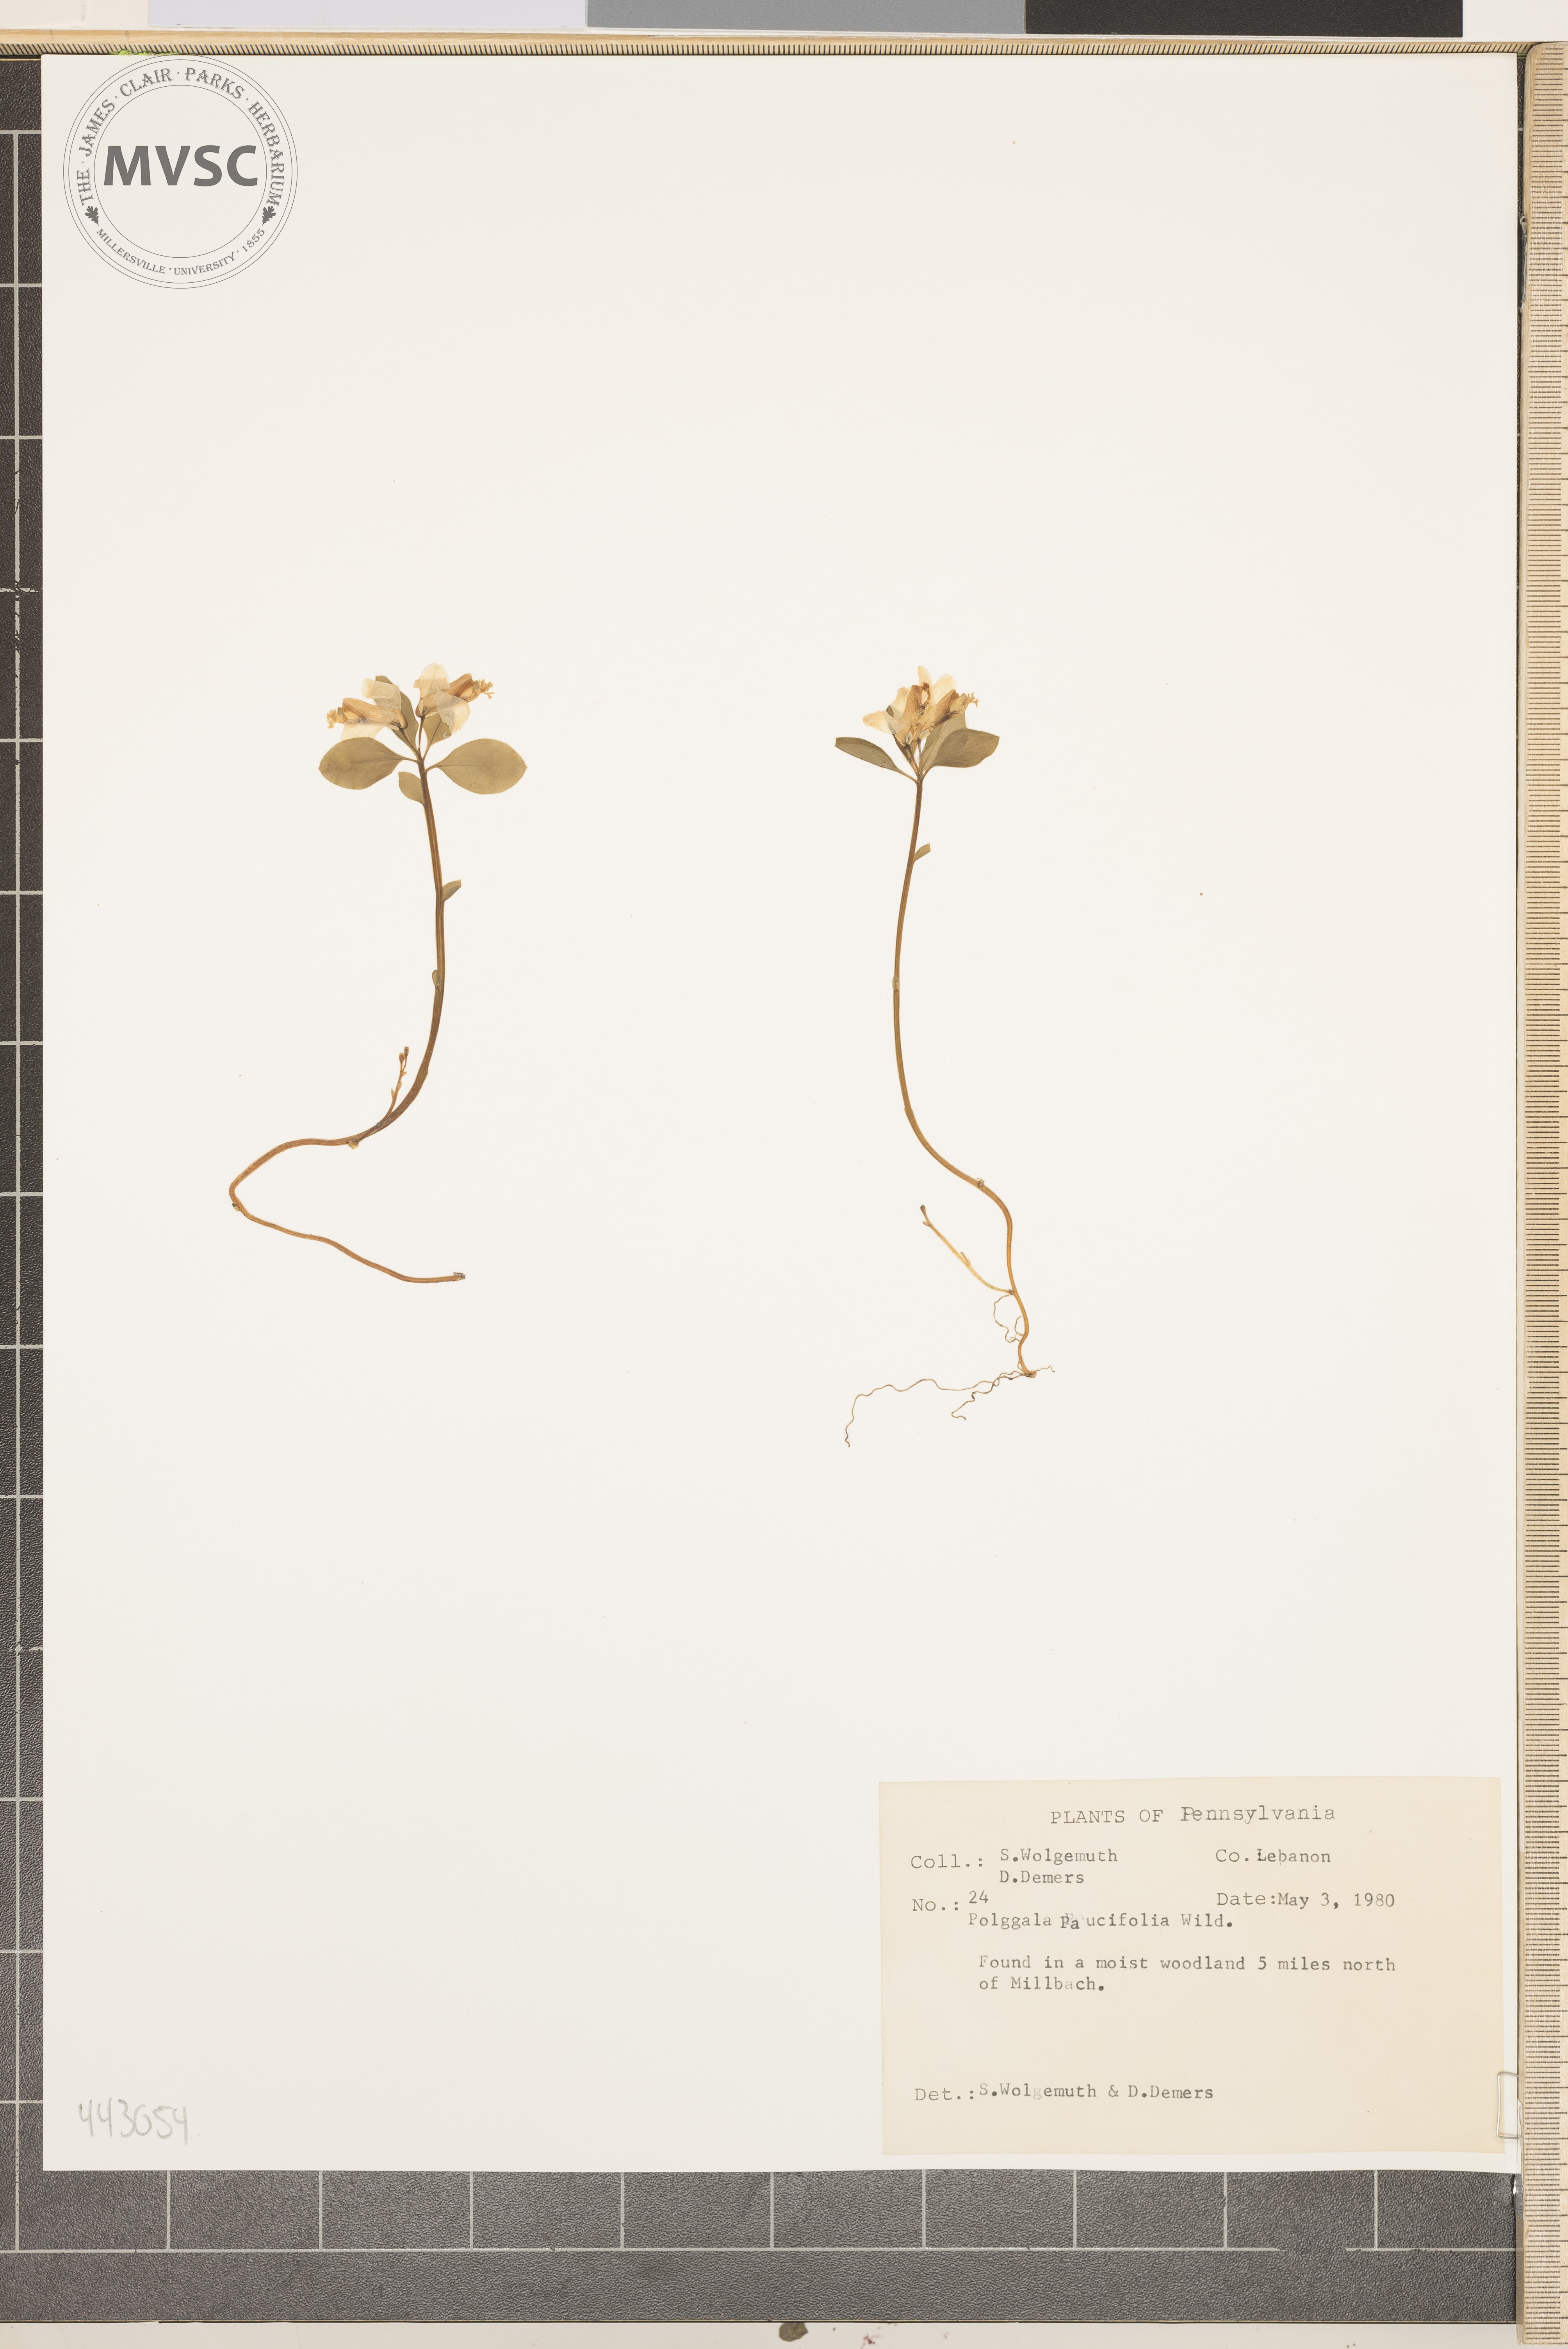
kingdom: Plantae
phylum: Tracheophyta
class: Magnoliopsida
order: Fabales
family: Polygalaceae
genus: Polygaloides
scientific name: Polygaloides paucifolia
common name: Bird-on-the-wing
